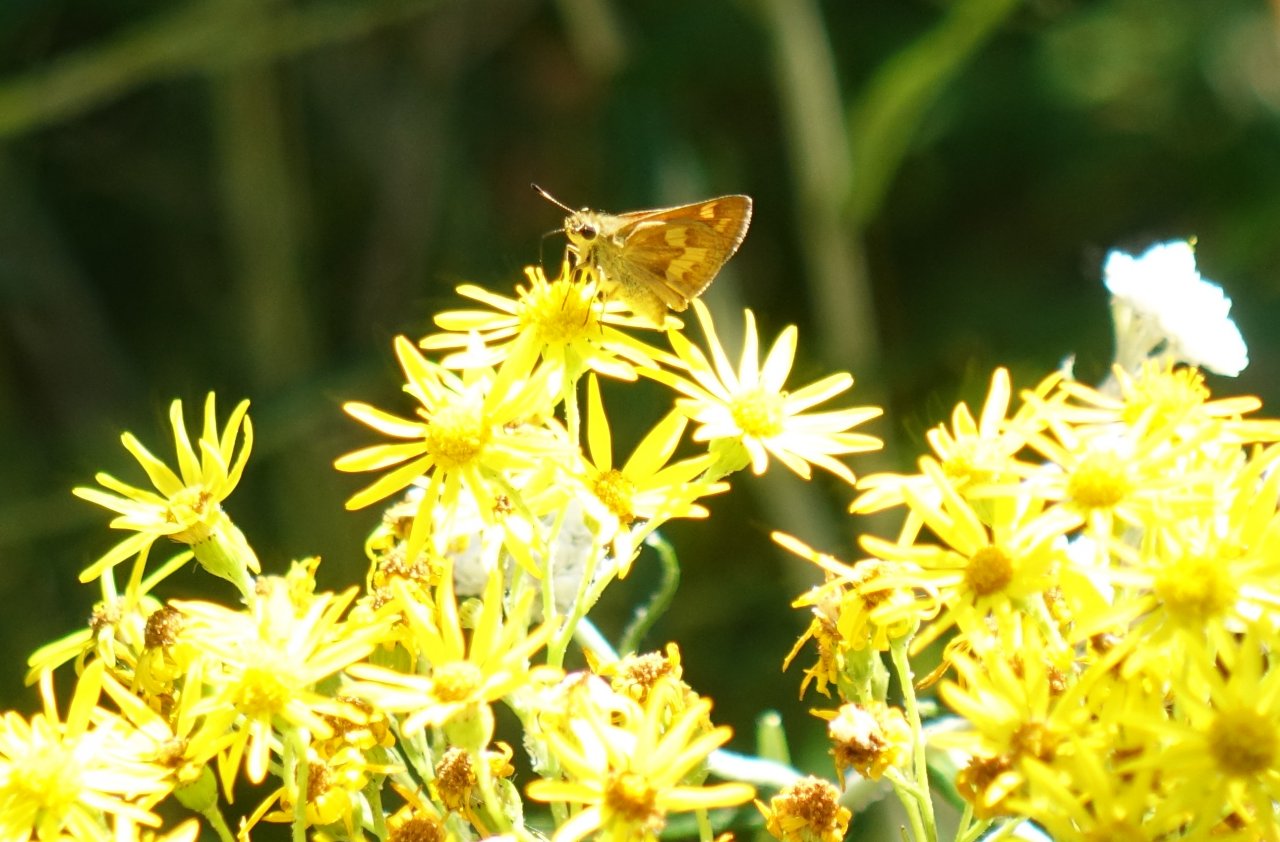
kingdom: Animalia
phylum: Arthropoda
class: Insecta
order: Lepidoptera
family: Hesperiidae
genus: Ochlodes
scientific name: Ochlodes sylvanoides
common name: Woodland Skipper
